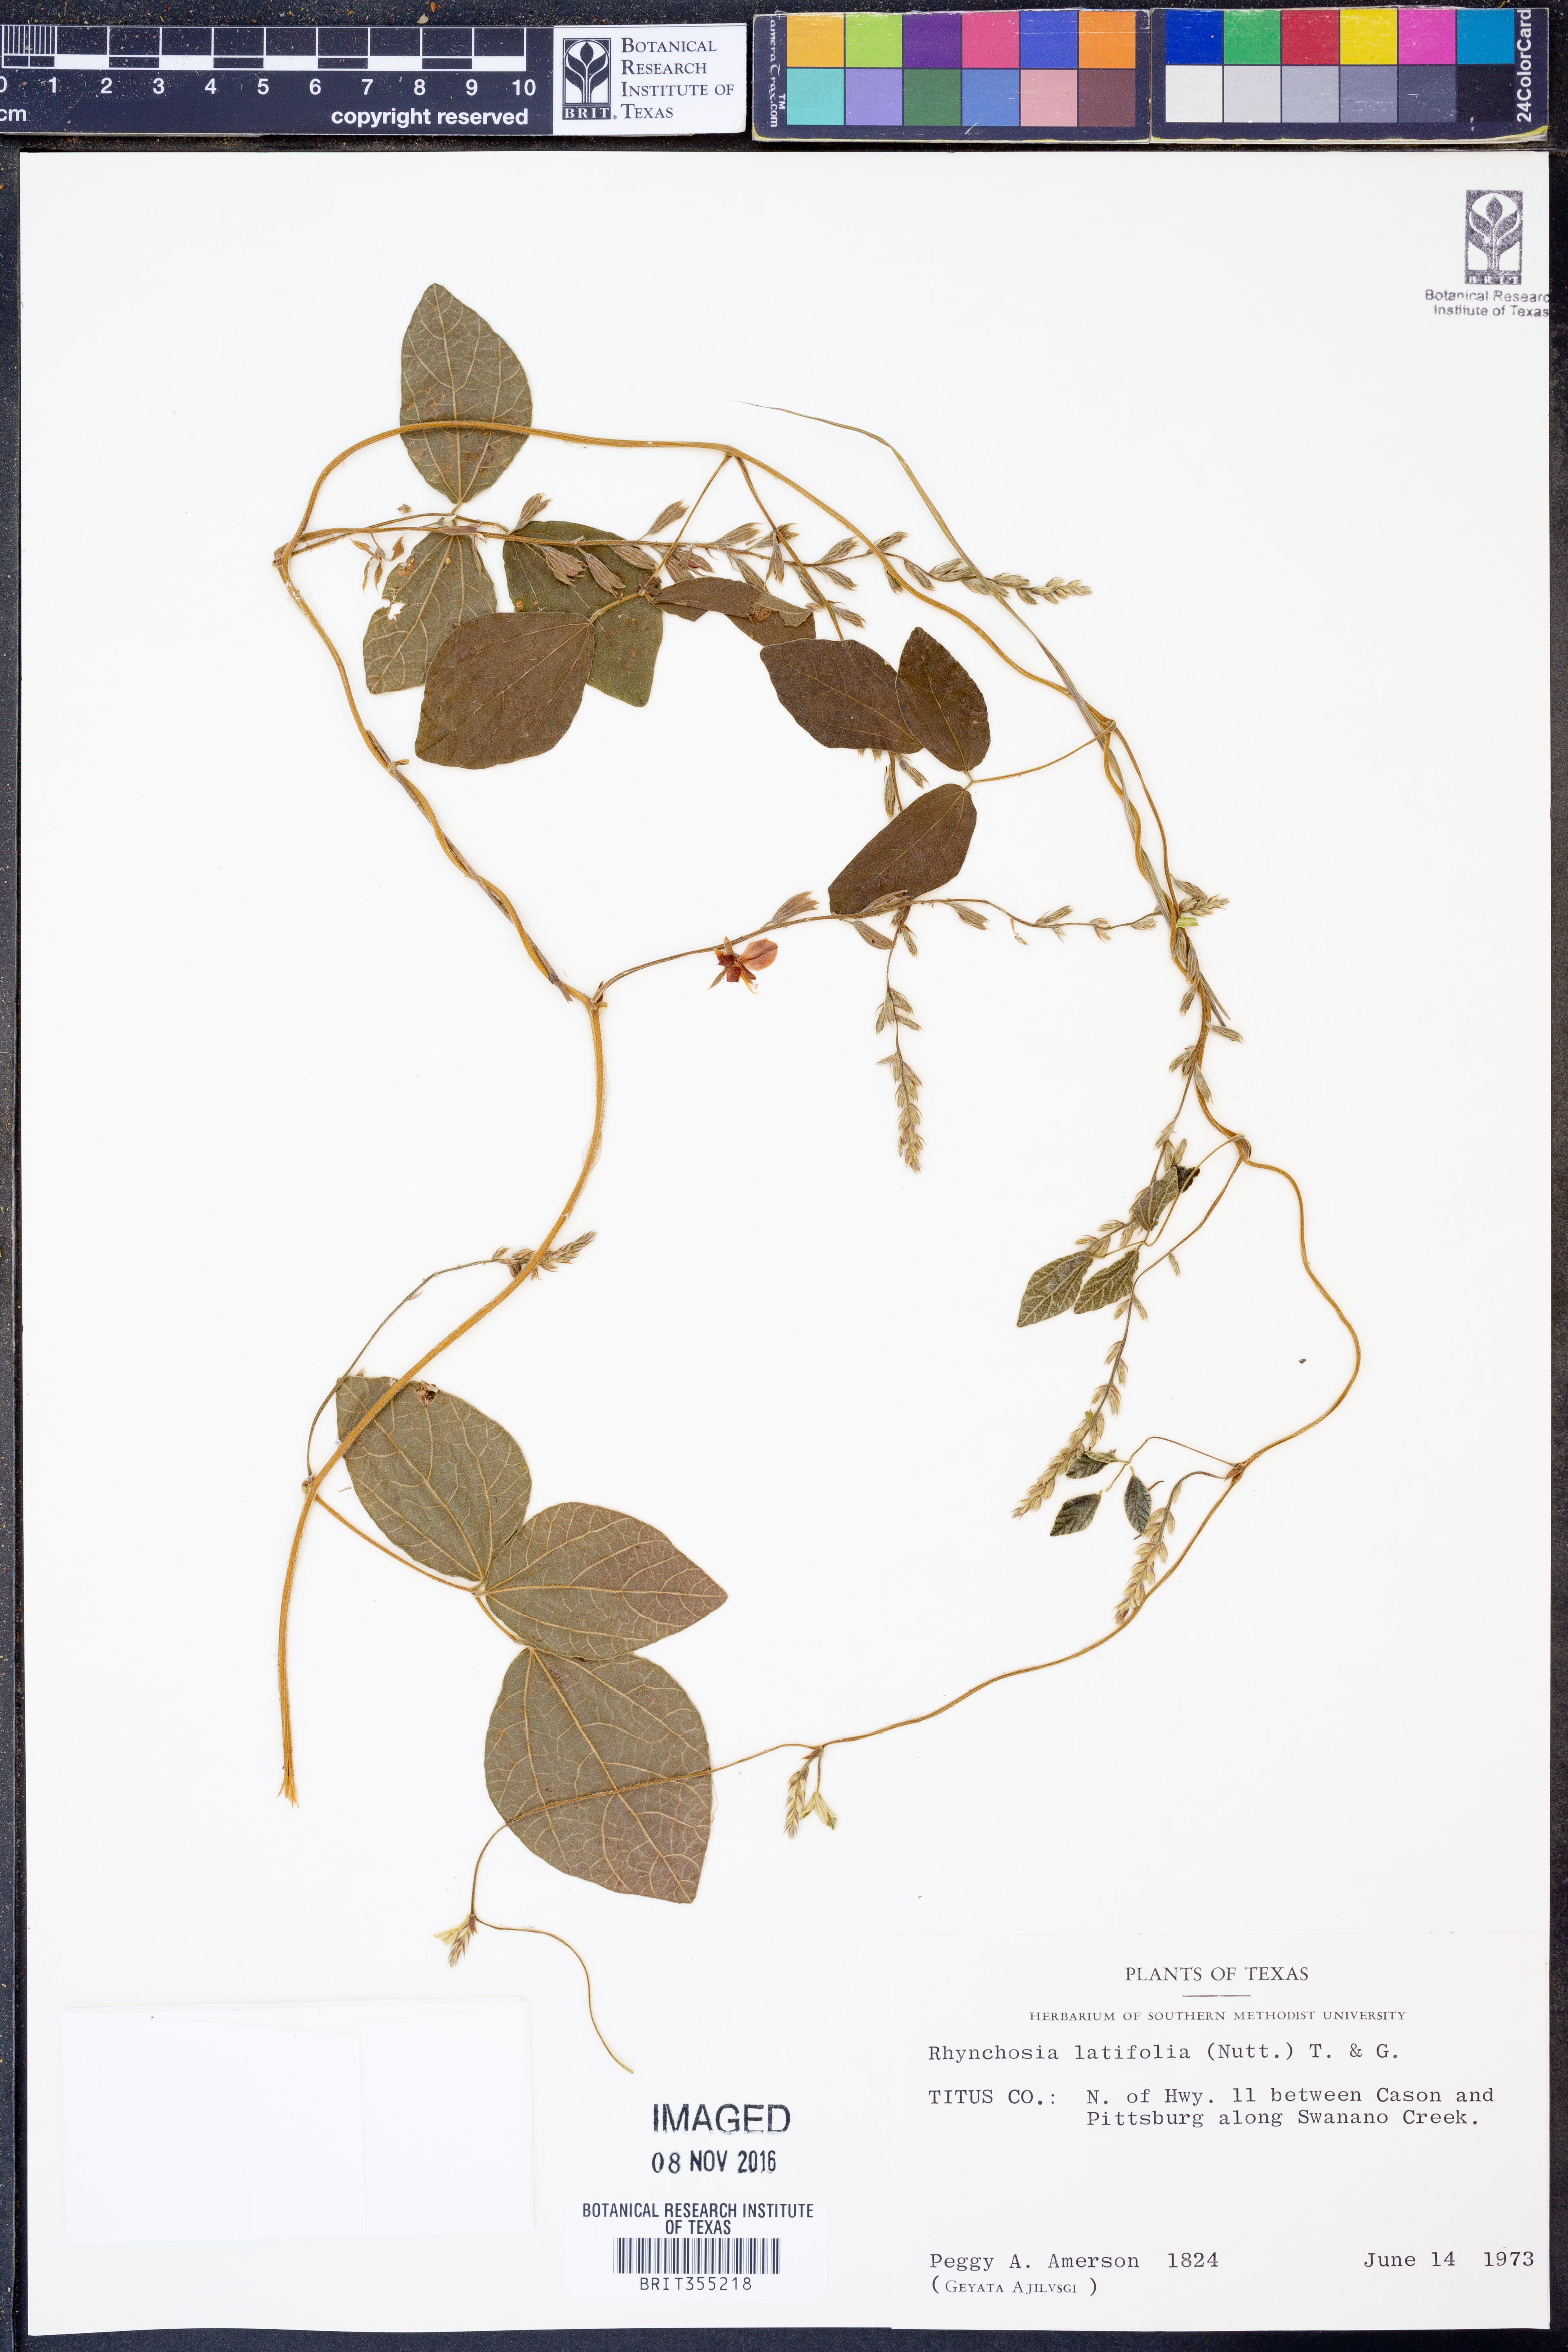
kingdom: Plantae
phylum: Tracheophyta
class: Magnoliopsida
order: Fabales
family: Fabaceae
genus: Rhynchosia
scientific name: Rhynchosia latifolia
